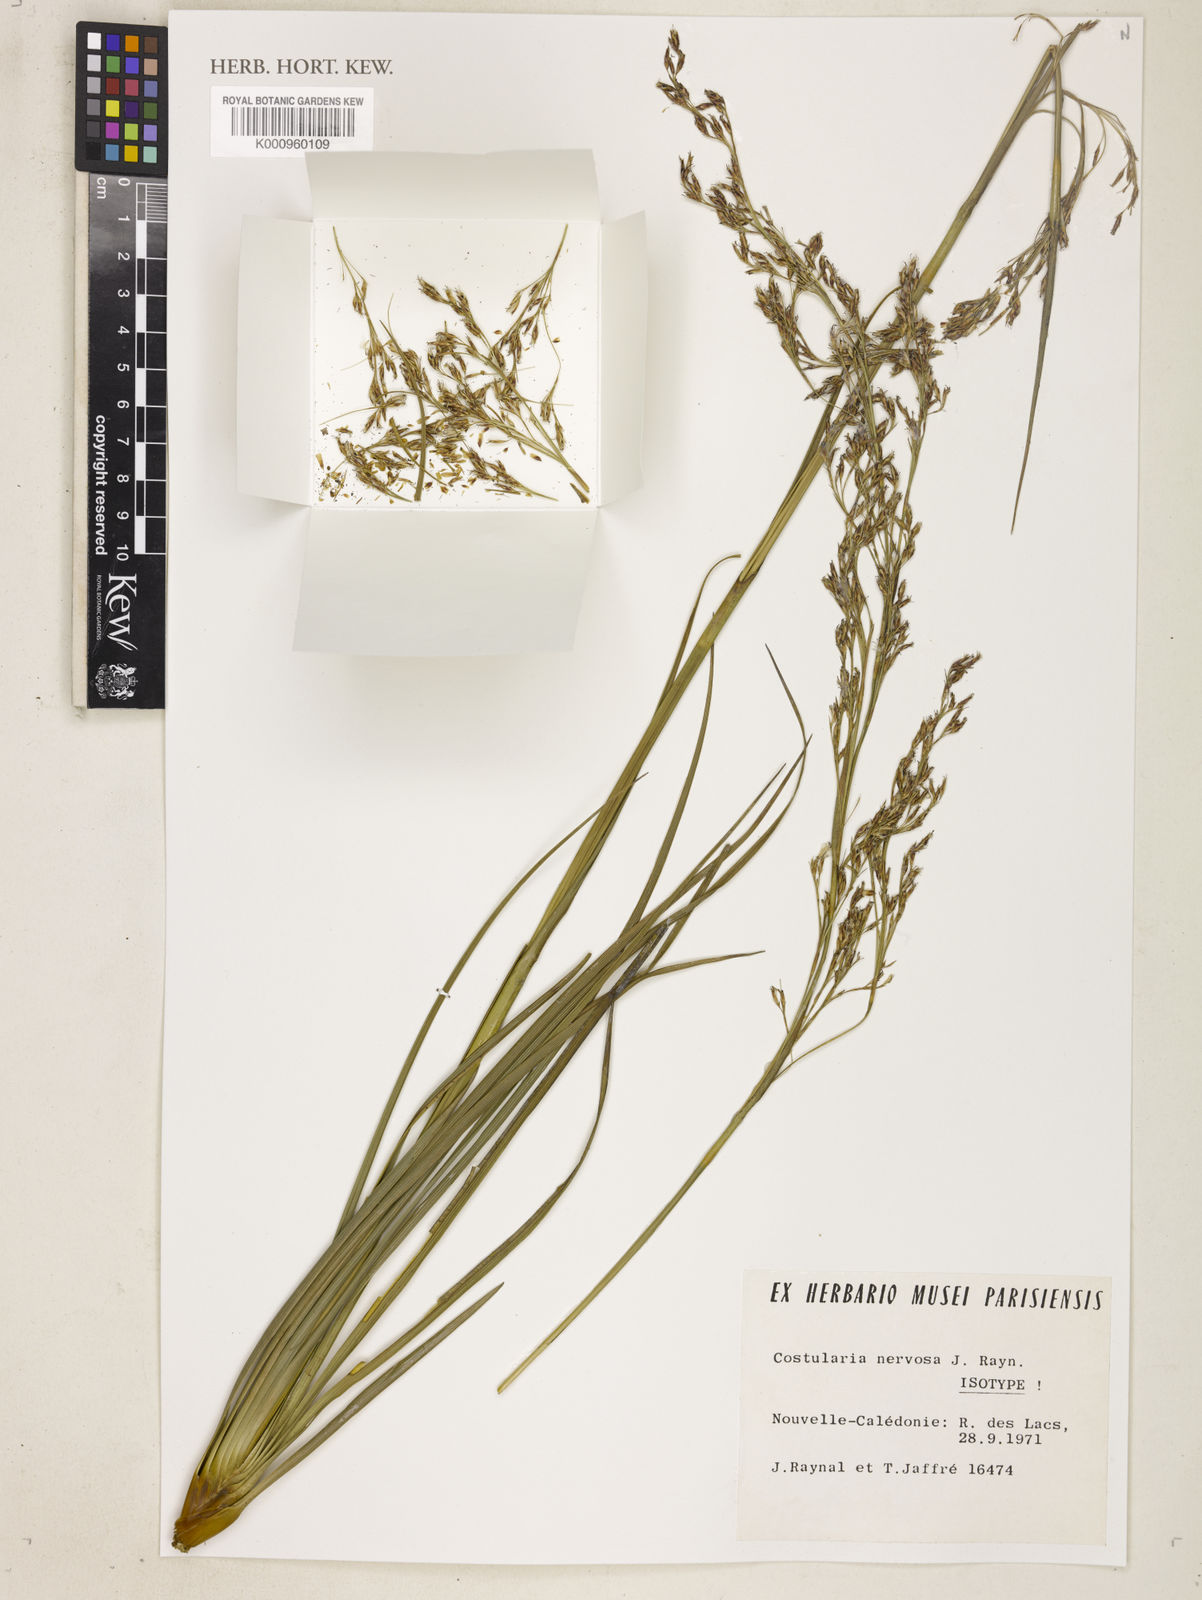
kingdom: Plantae
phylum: Tracheophyta
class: Liliopsida
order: Poales
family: Cyperaceae
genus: Chamaedendron
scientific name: Chamaedendron nervosa
